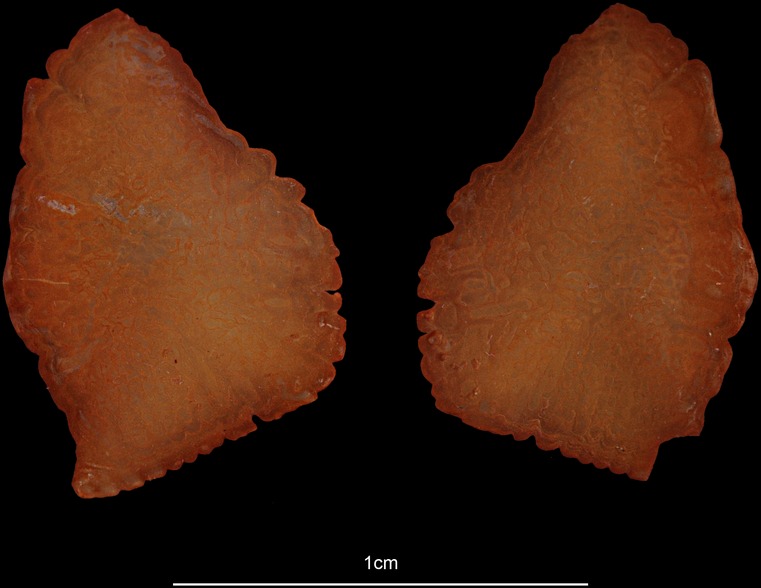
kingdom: Animalia
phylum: Chordata
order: Beryciformes
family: Berycidae
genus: Beryx
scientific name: Beryx splendens
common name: Lowe's beryx
